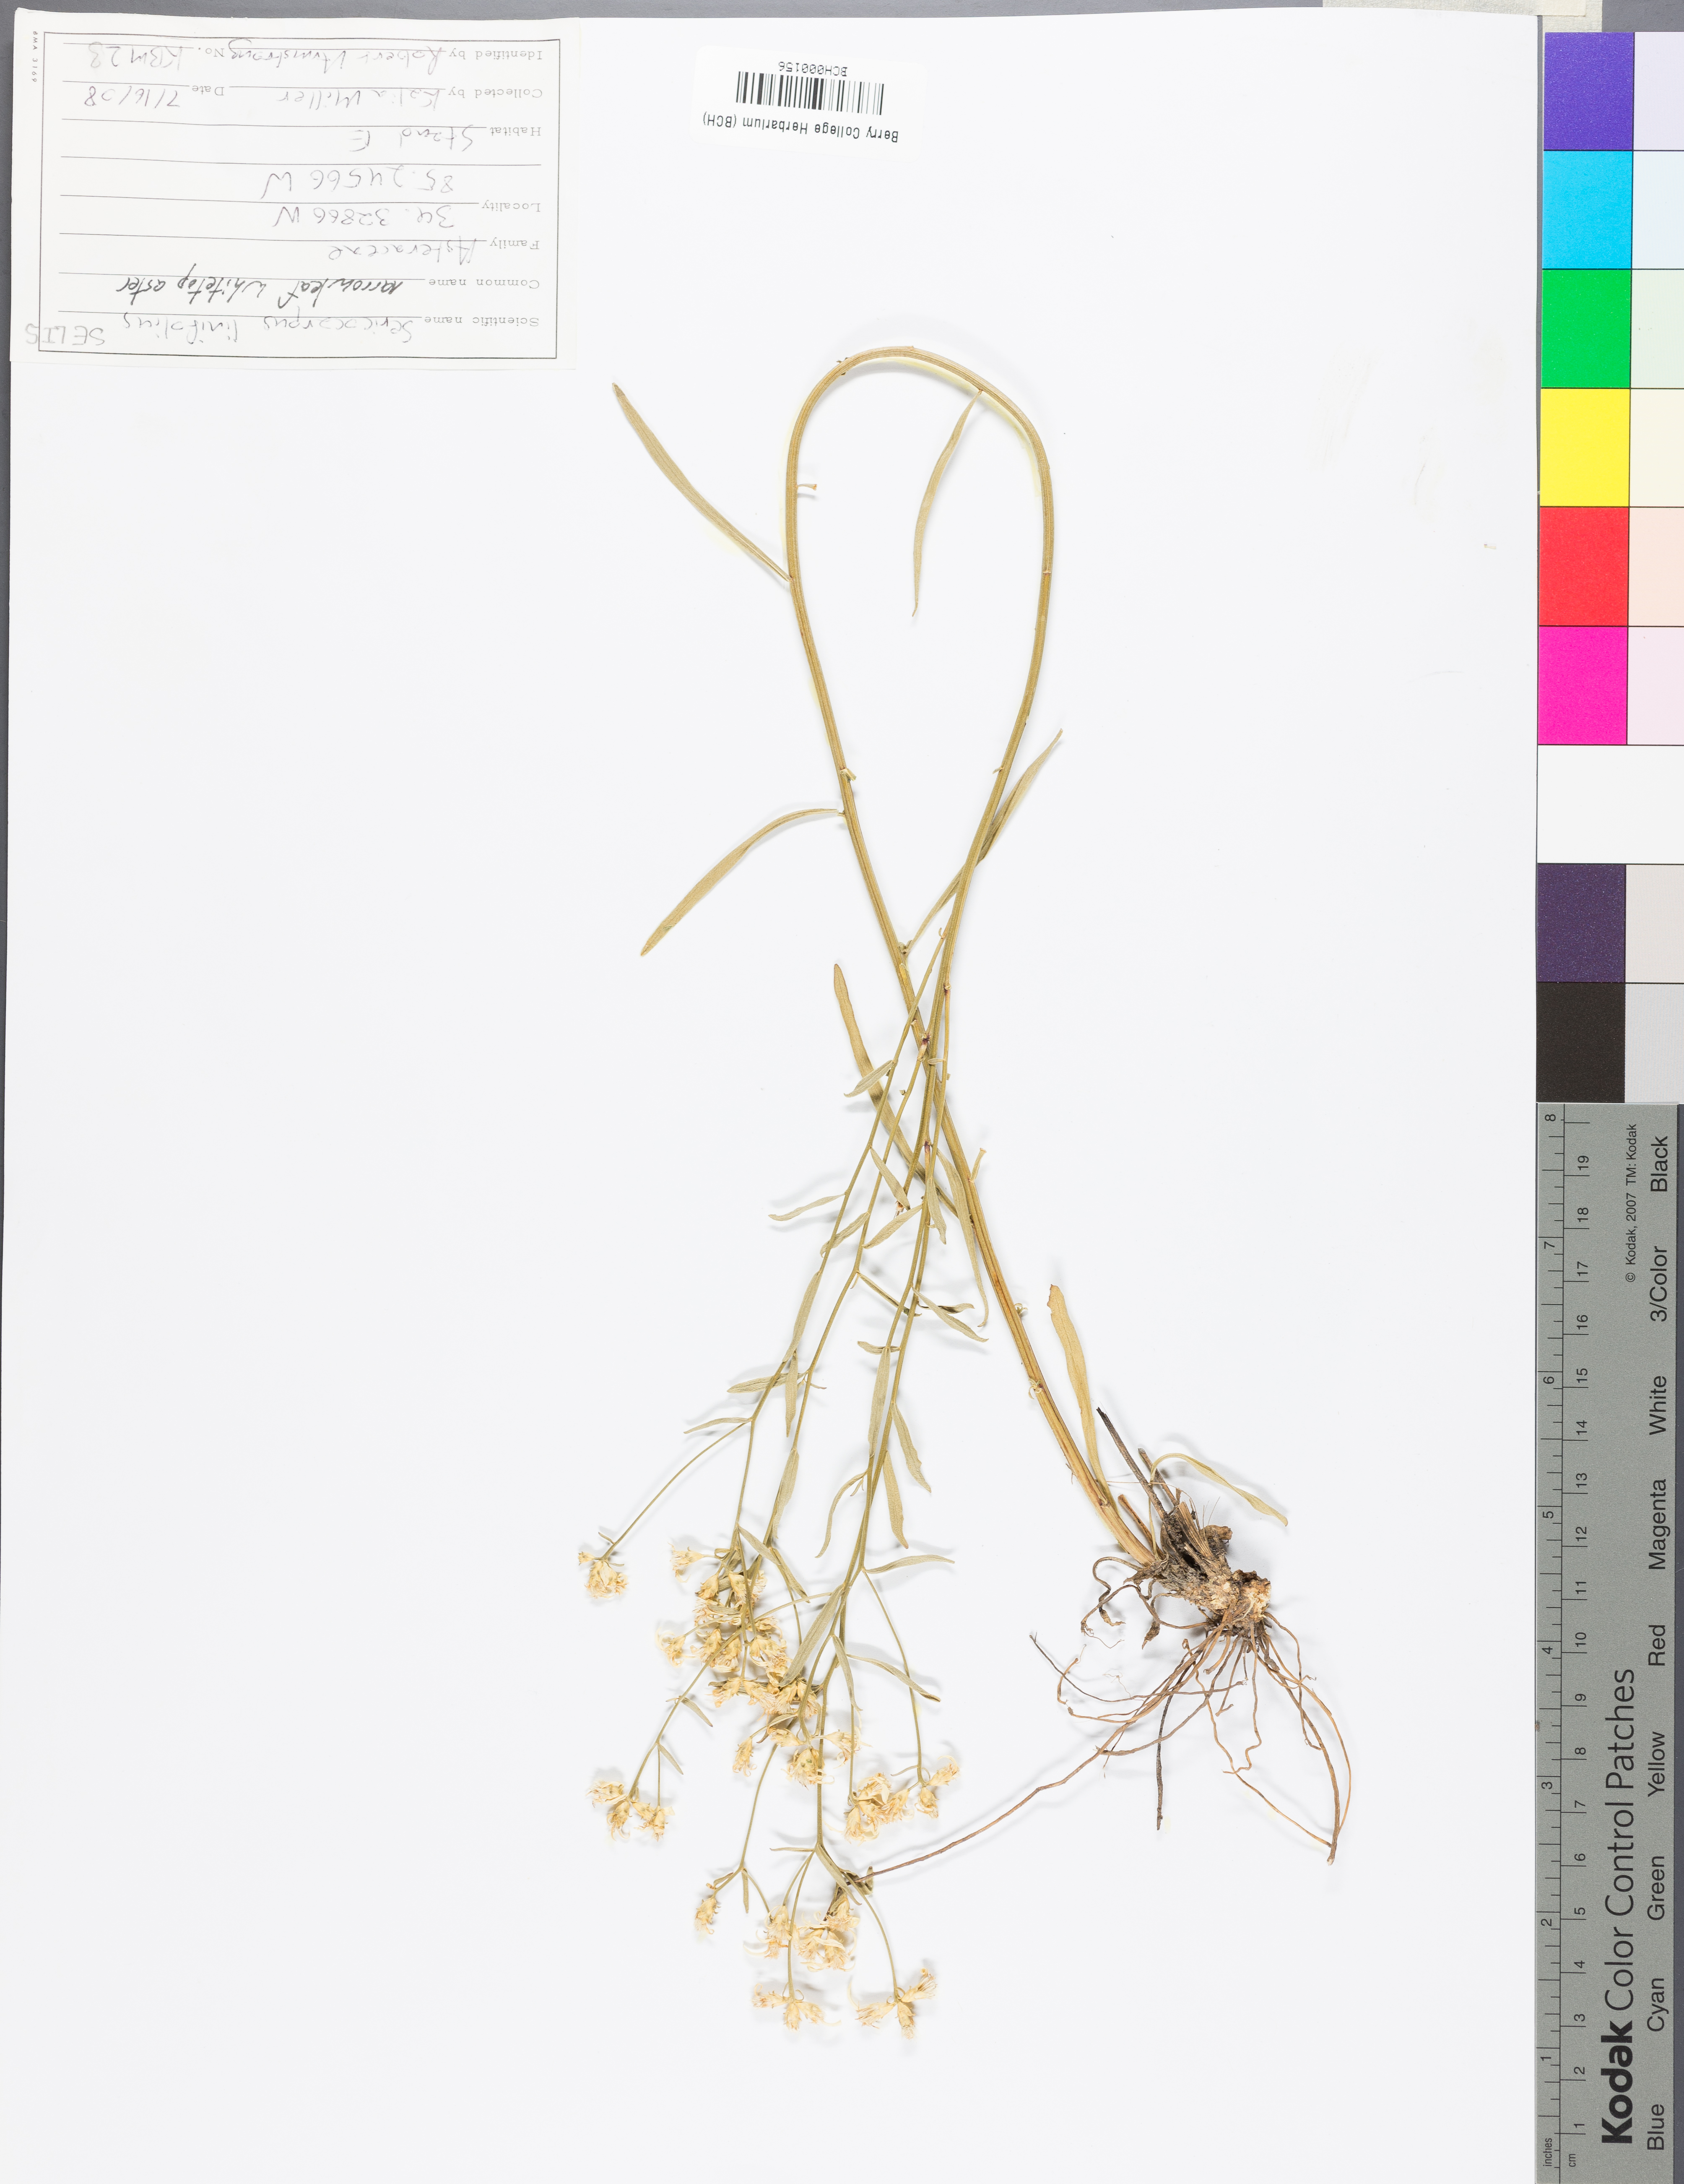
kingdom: Plantae
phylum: Tracheophyta
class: Magnoliopsida
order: Asterales
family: Asteraceae
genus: Sericocarpus
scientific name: Sericocarpus linifolius
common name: Narrow-leaf aster
